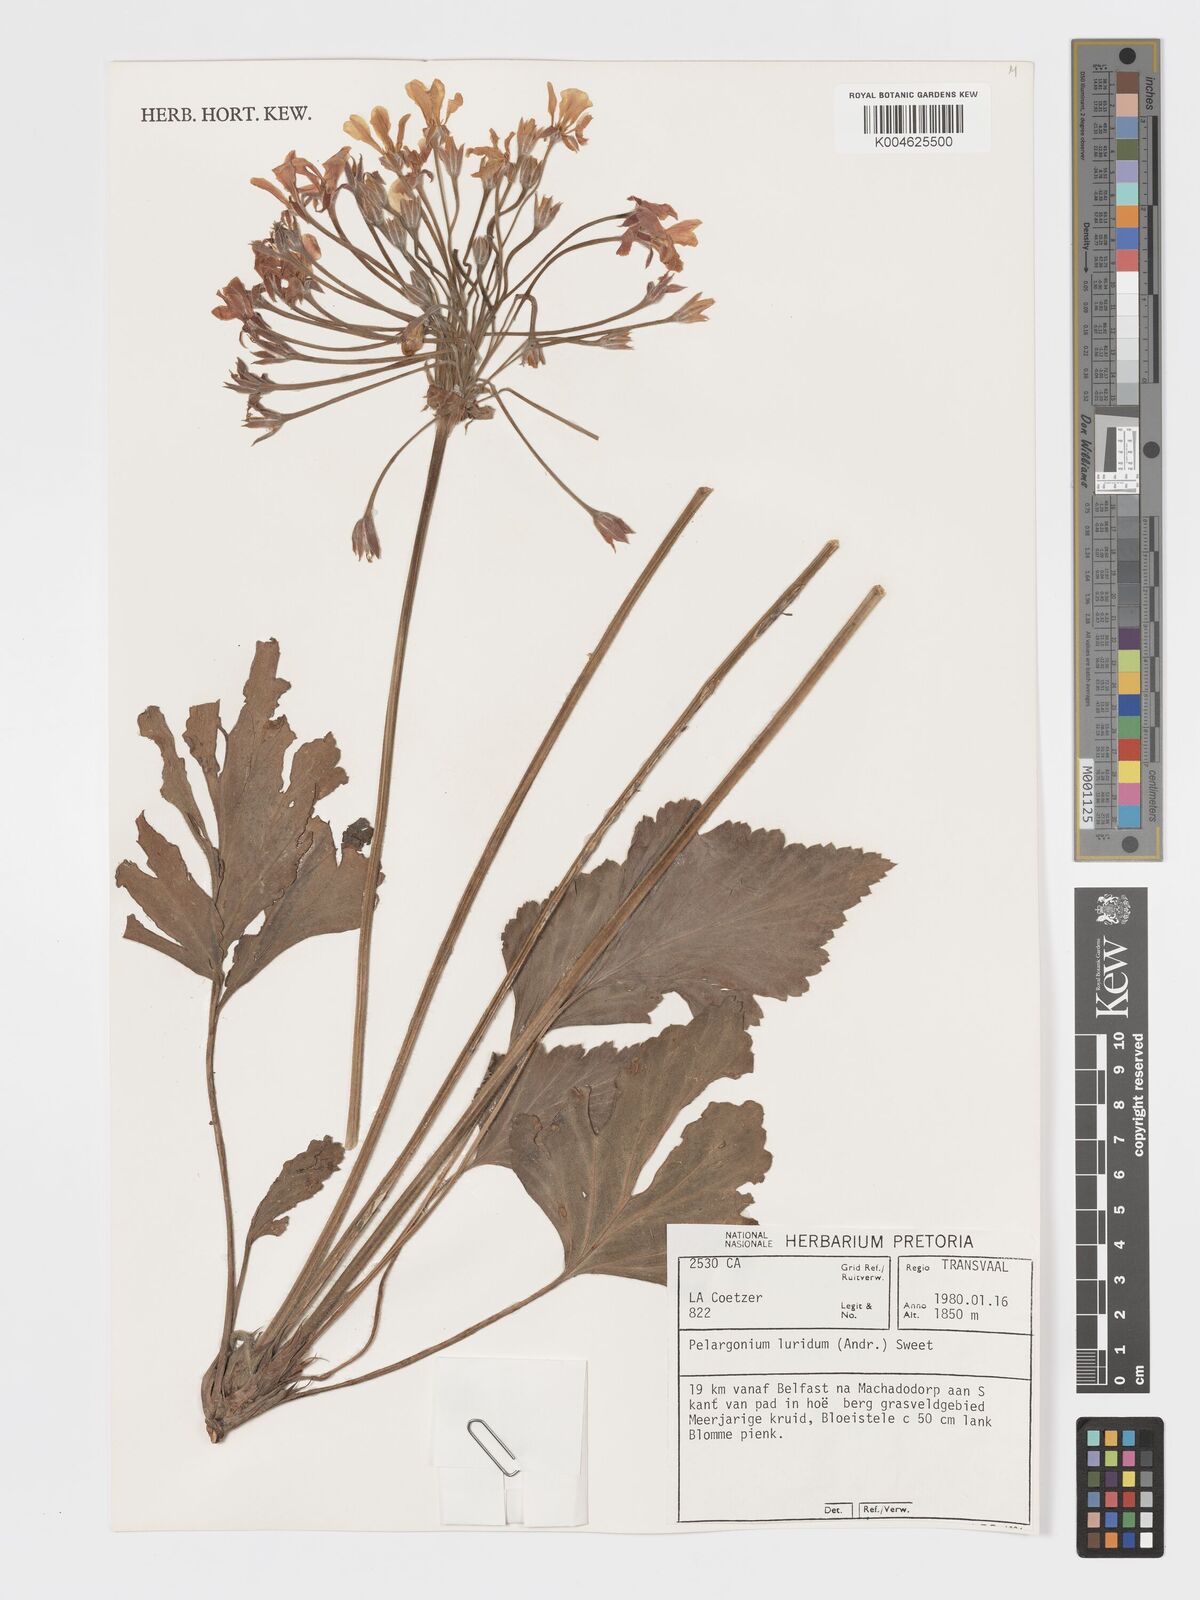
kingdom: Plantae
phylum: Tracheophyta
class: Magnoliopsida
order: Geraniales
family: Geraniaceae
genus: Pelargonium
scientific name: Pelargonium luridum
